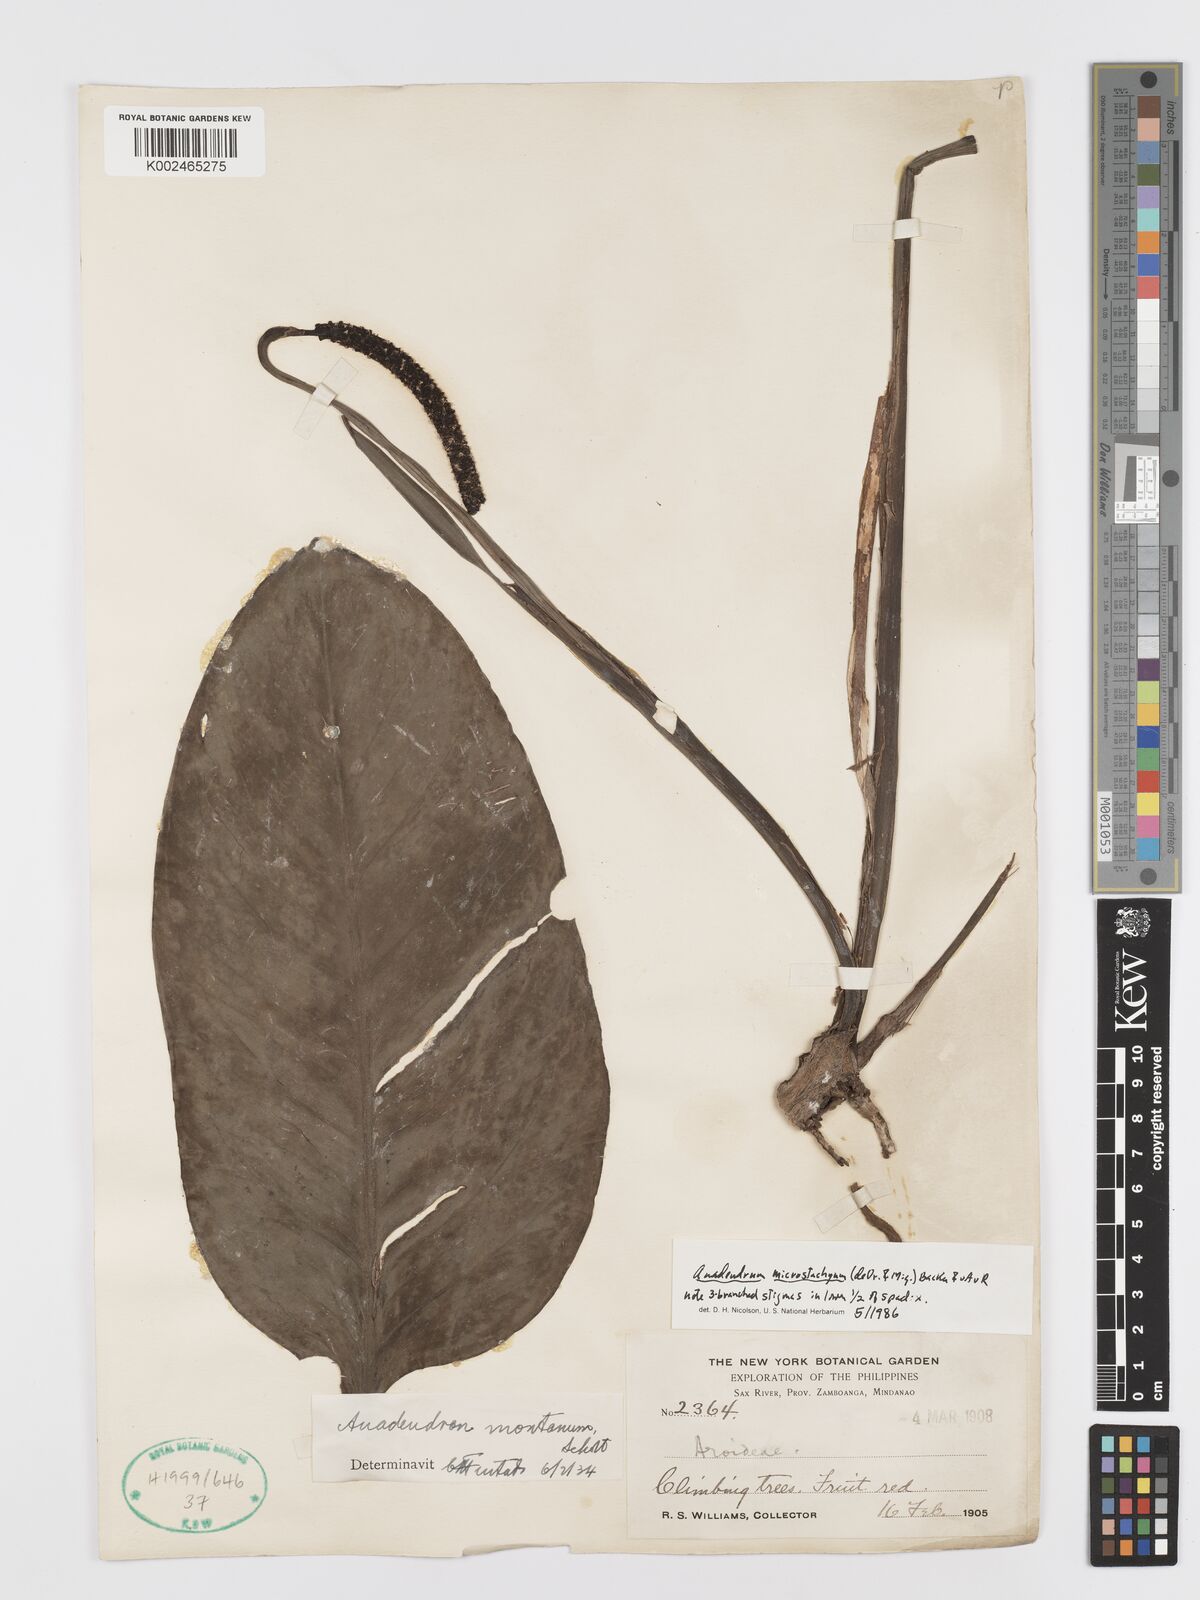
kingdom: Plantae
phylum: Tracheophyta
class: Liliopsida
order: Alismatales
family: Araceae
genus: Anadendrum
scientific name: Anadendrum microstachyum
